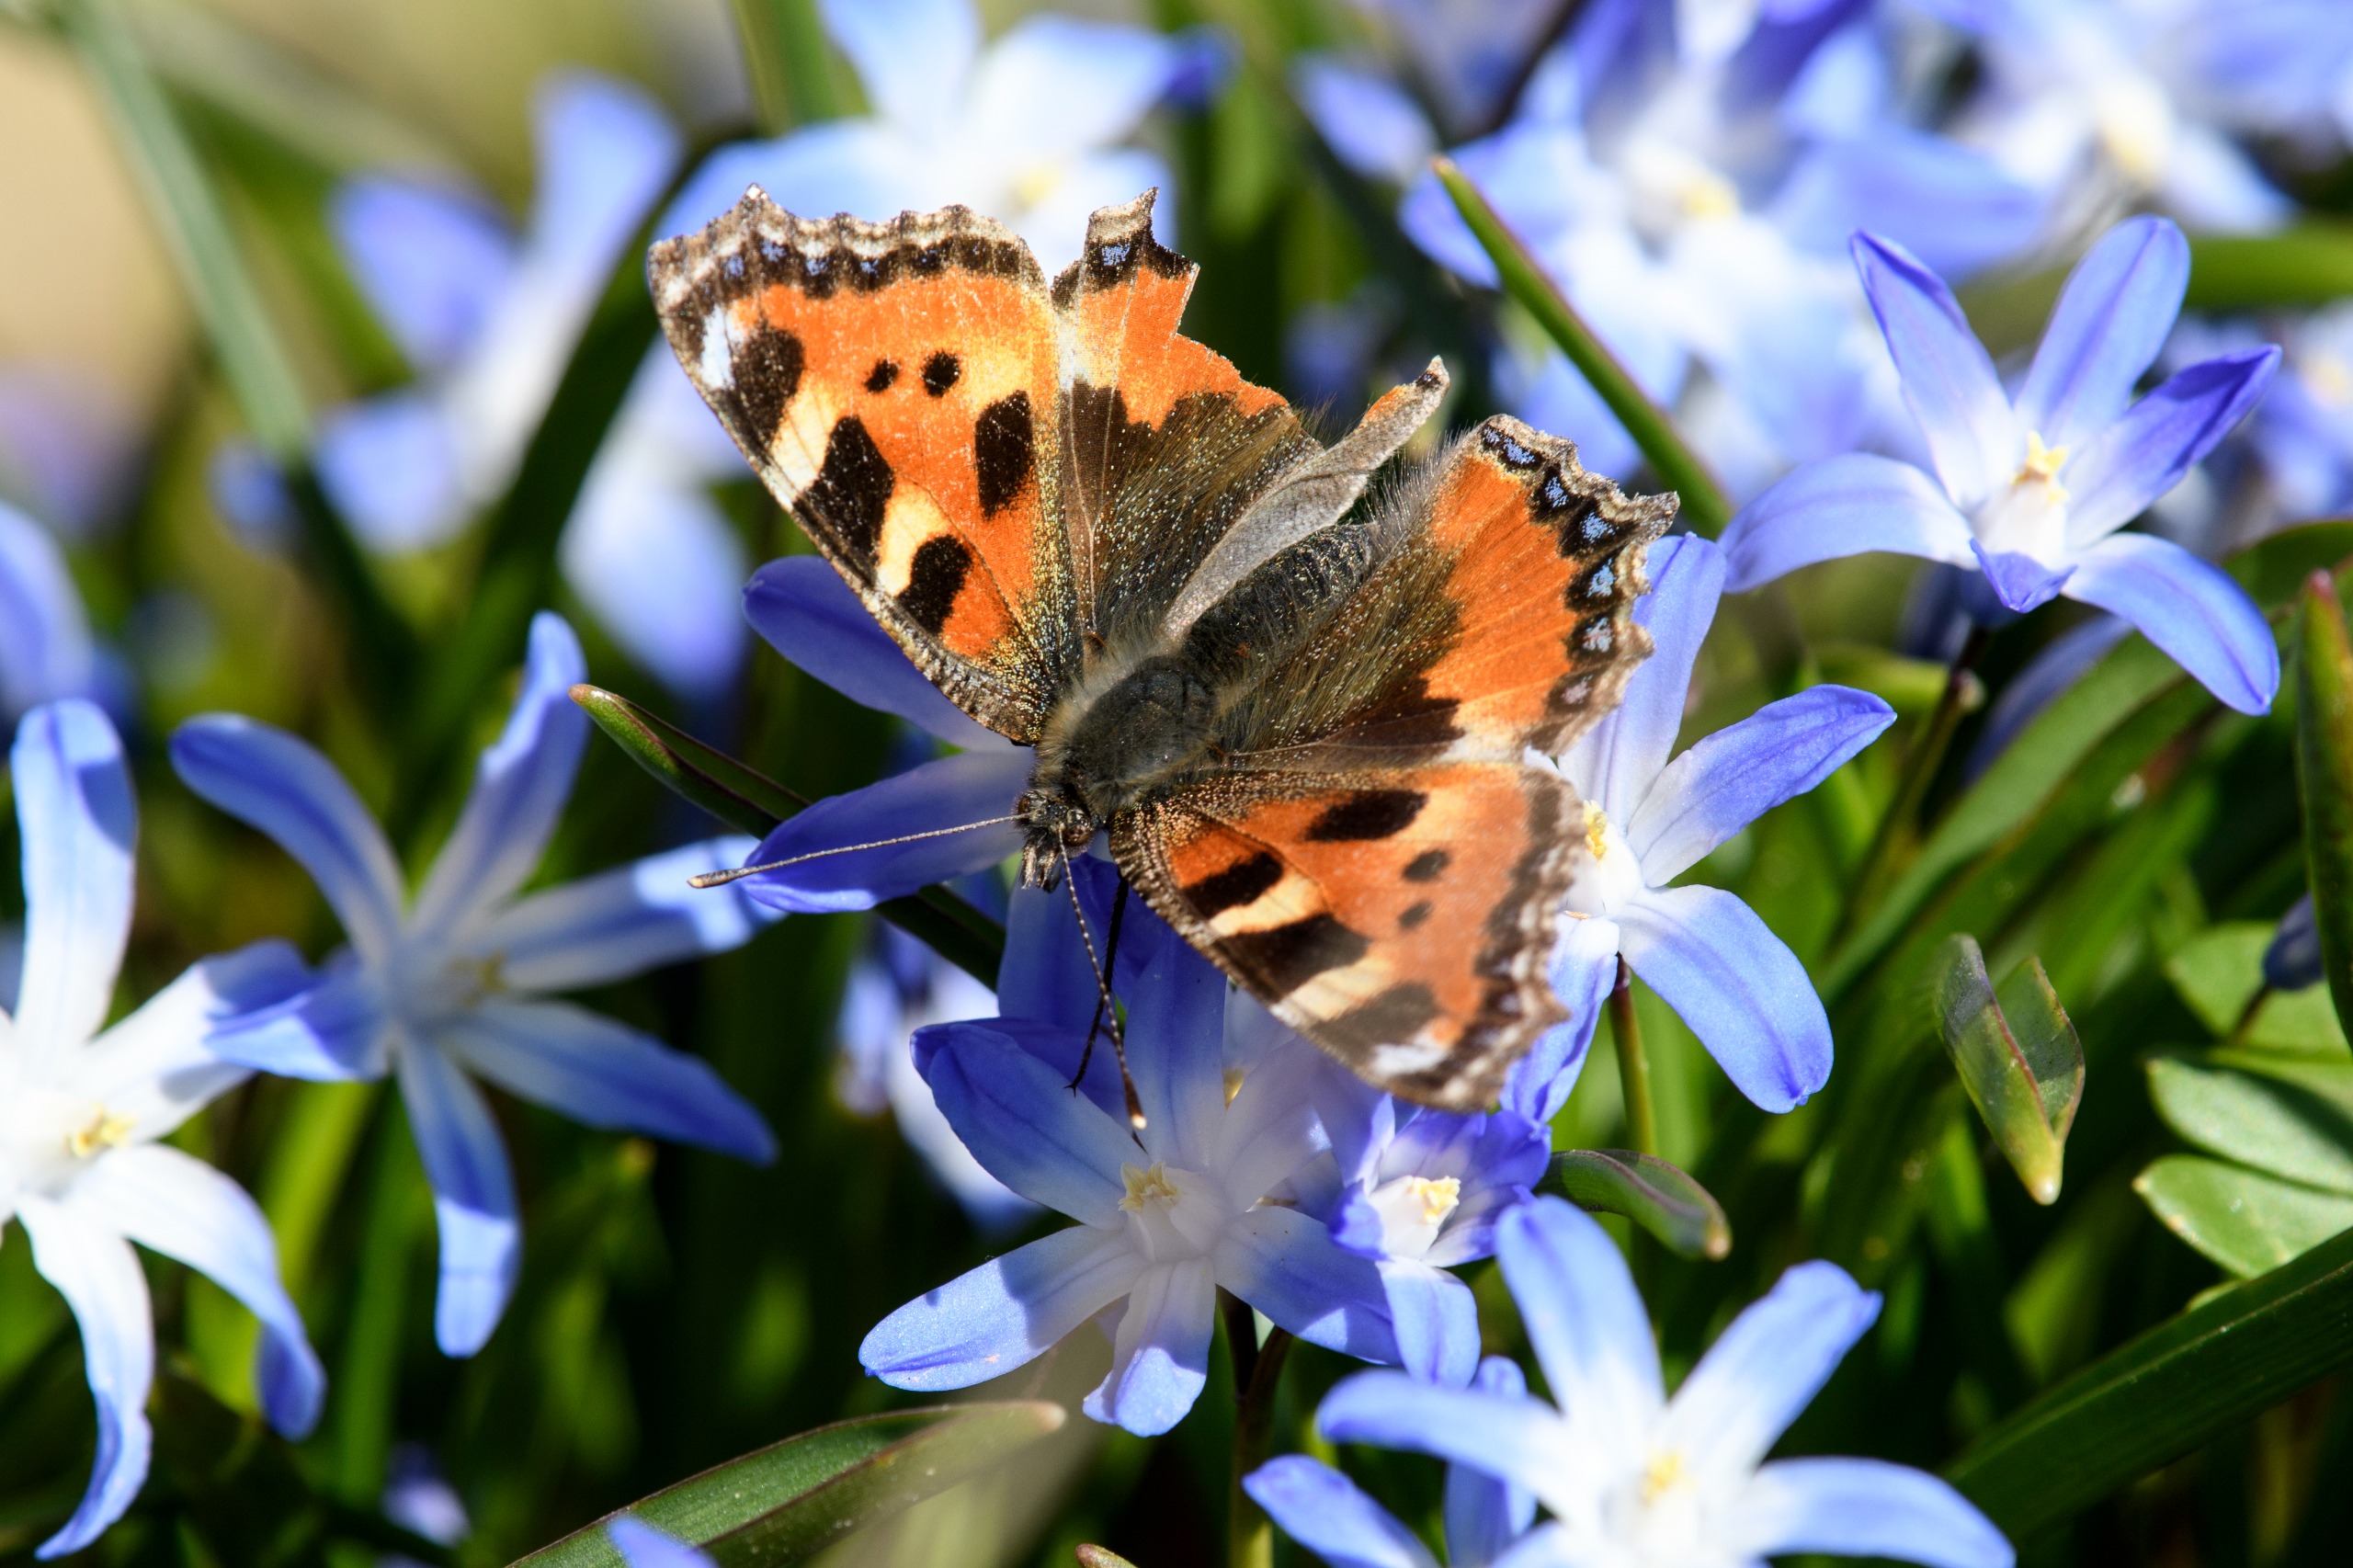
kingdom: Animalia
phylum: Arthropoda
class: Insecta
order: Lepidoptera
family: Nymphalidae
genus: Aglais
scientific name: Aglais urticae
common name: Nældens takvinge
